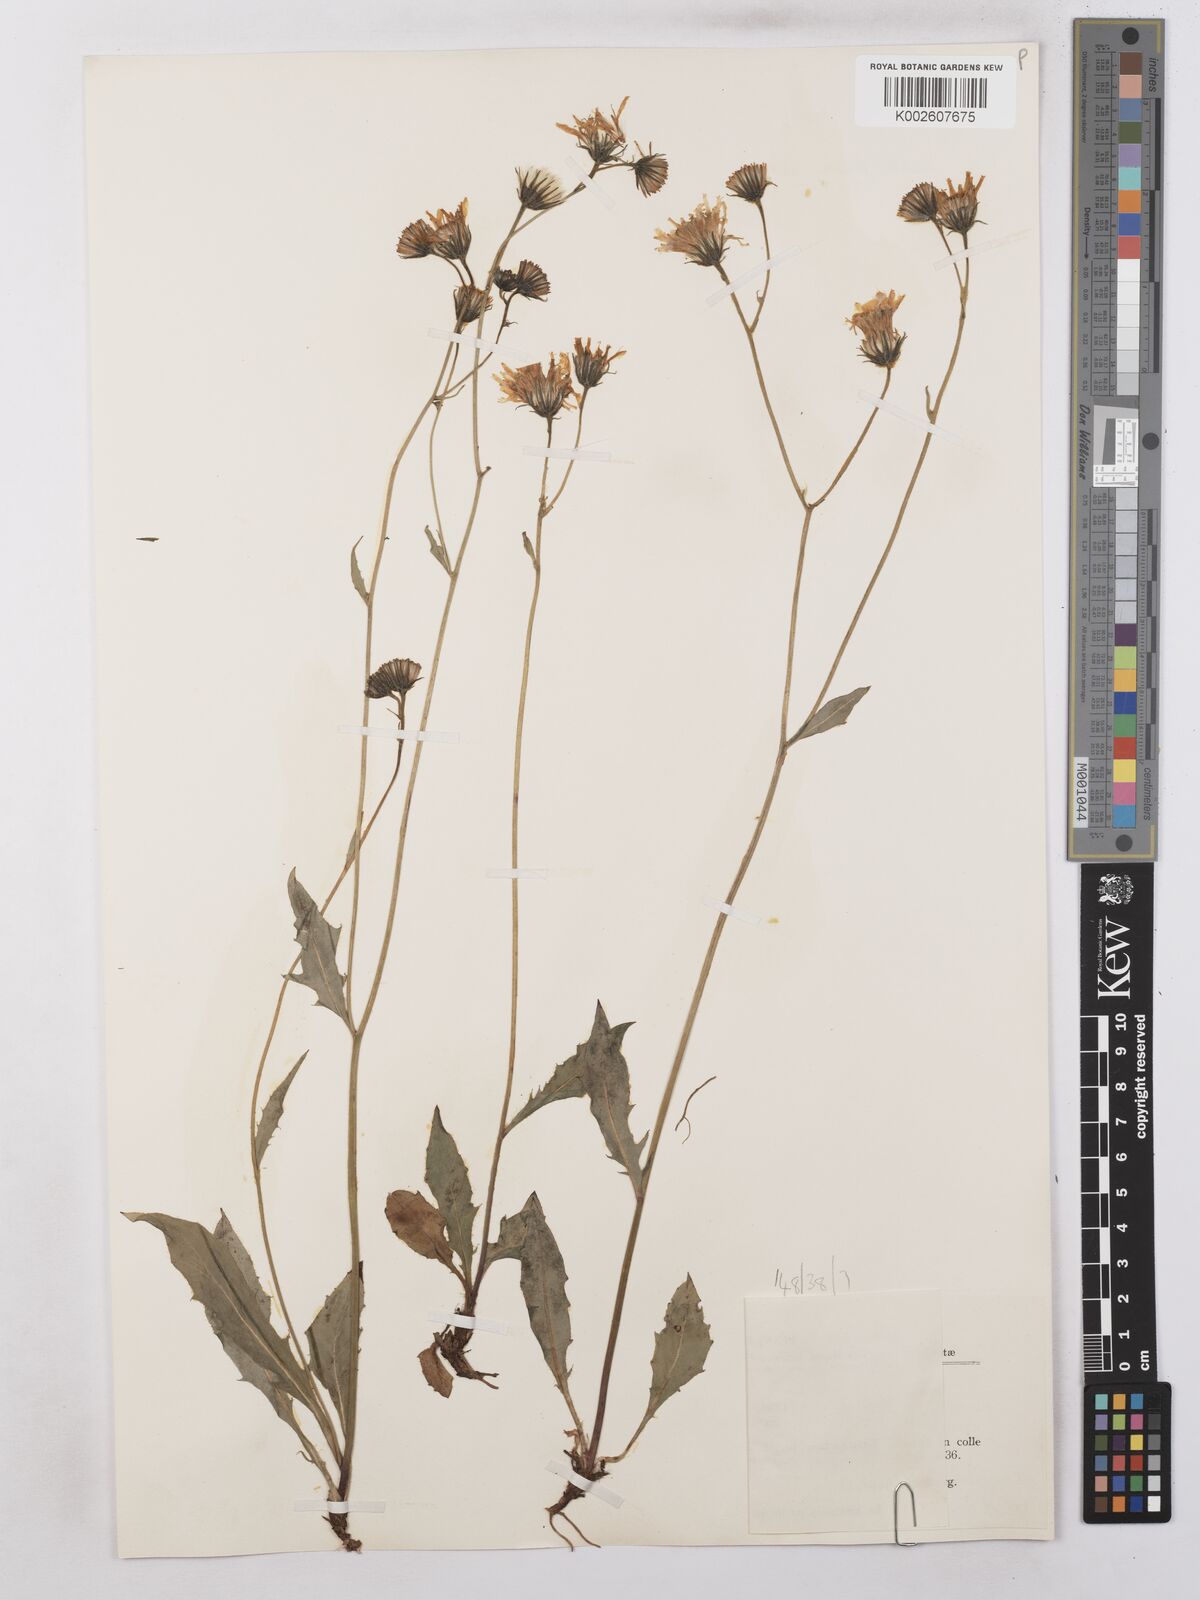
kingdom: Plantae
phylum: Tracheophyta
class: Magnoliopsida
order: Asterales
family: Asteraceae
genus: Hieracium
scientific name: Hieracium subramosum
